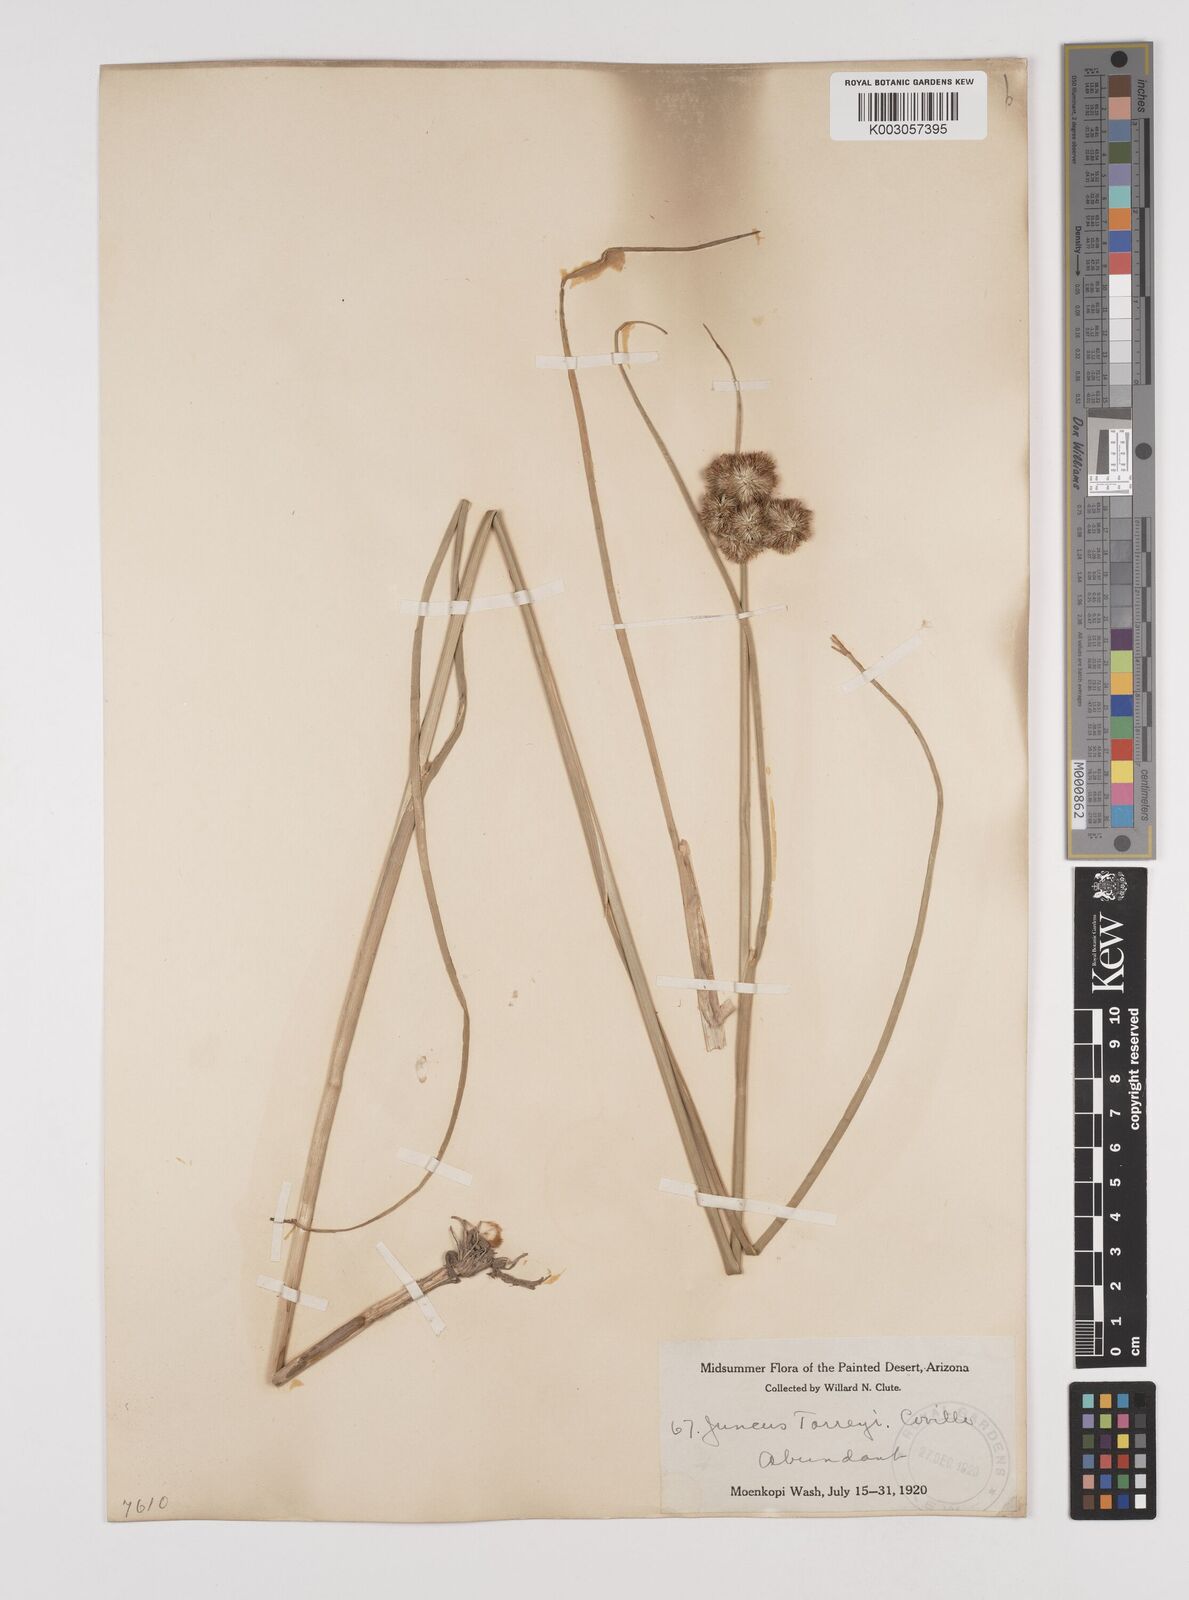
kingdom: Plantae
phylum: Tracheophyta
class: Liliopsida
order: Poales
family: Juncaceae
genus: Juncus
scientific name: Juncus torreyi
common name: Torrey's rush
